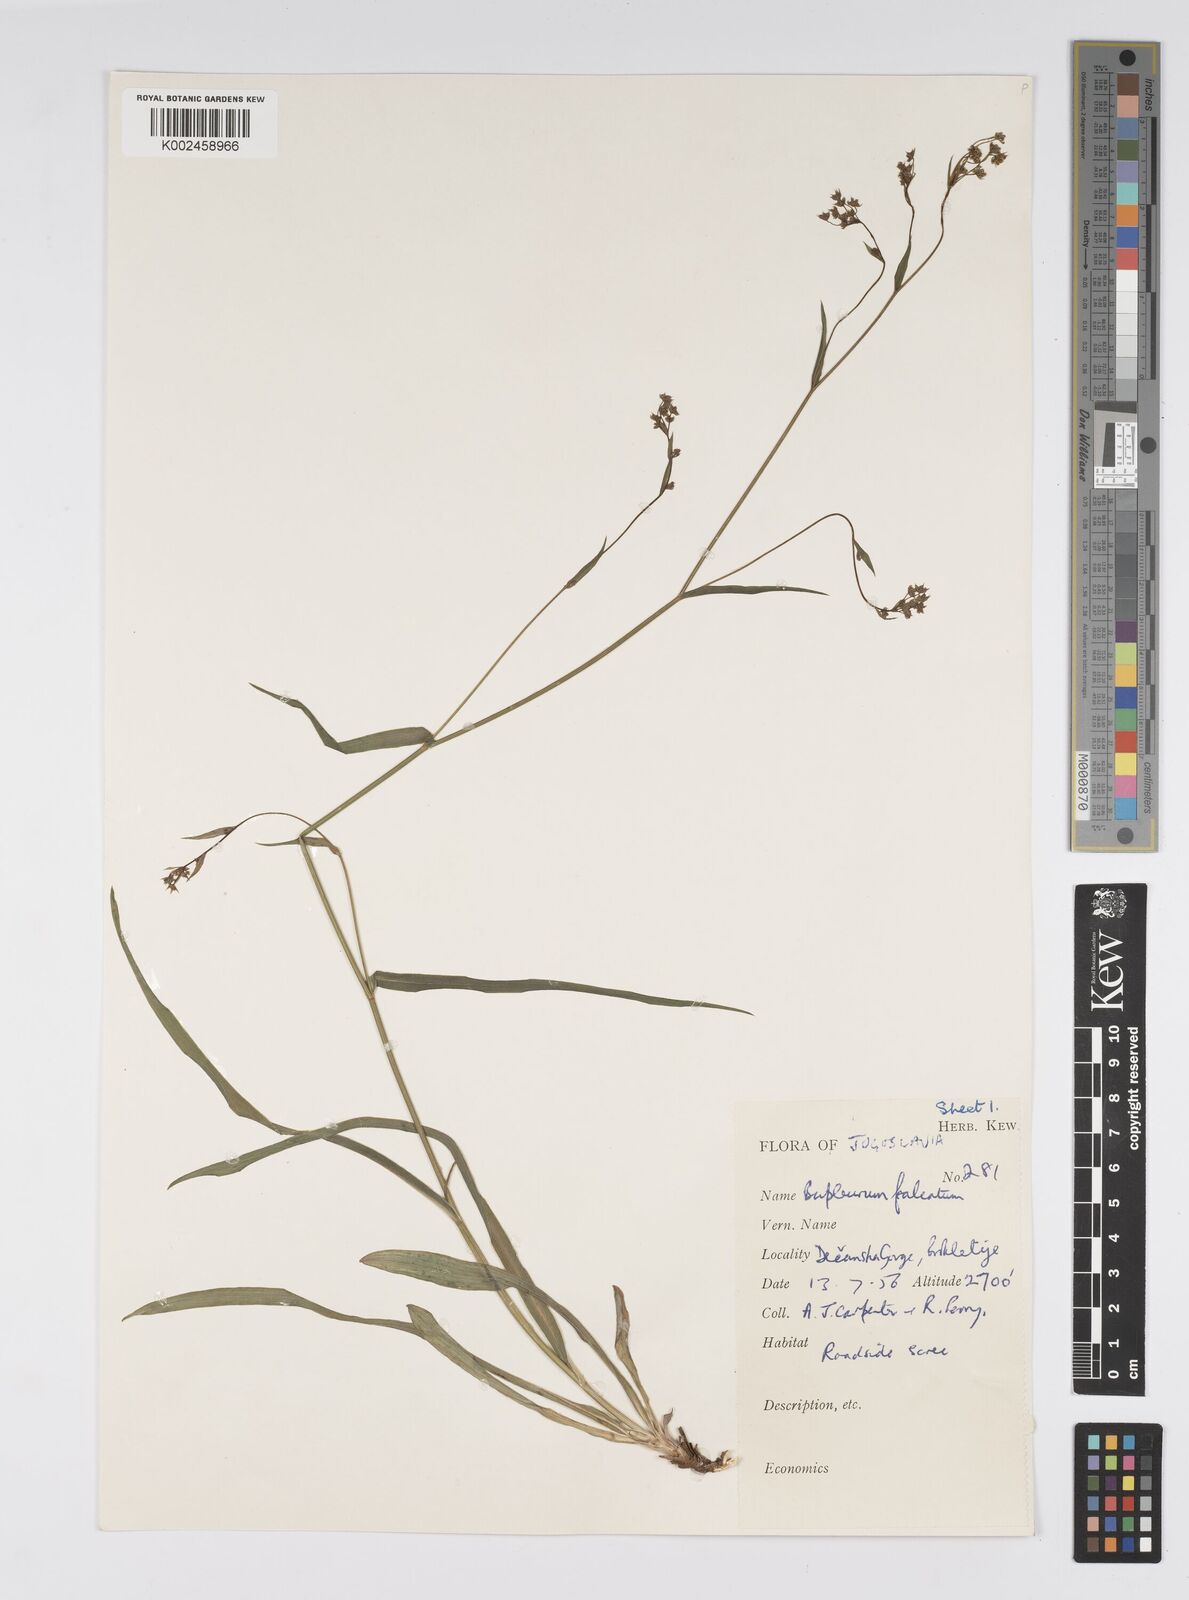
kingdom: Plantae
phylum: Tracheophyta
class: Magnoliopsida
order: Apiales
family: Apiaceae
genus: Bupleurum
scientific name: Bupleurum falcatum
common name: Sickle-leaved hare's-ear
